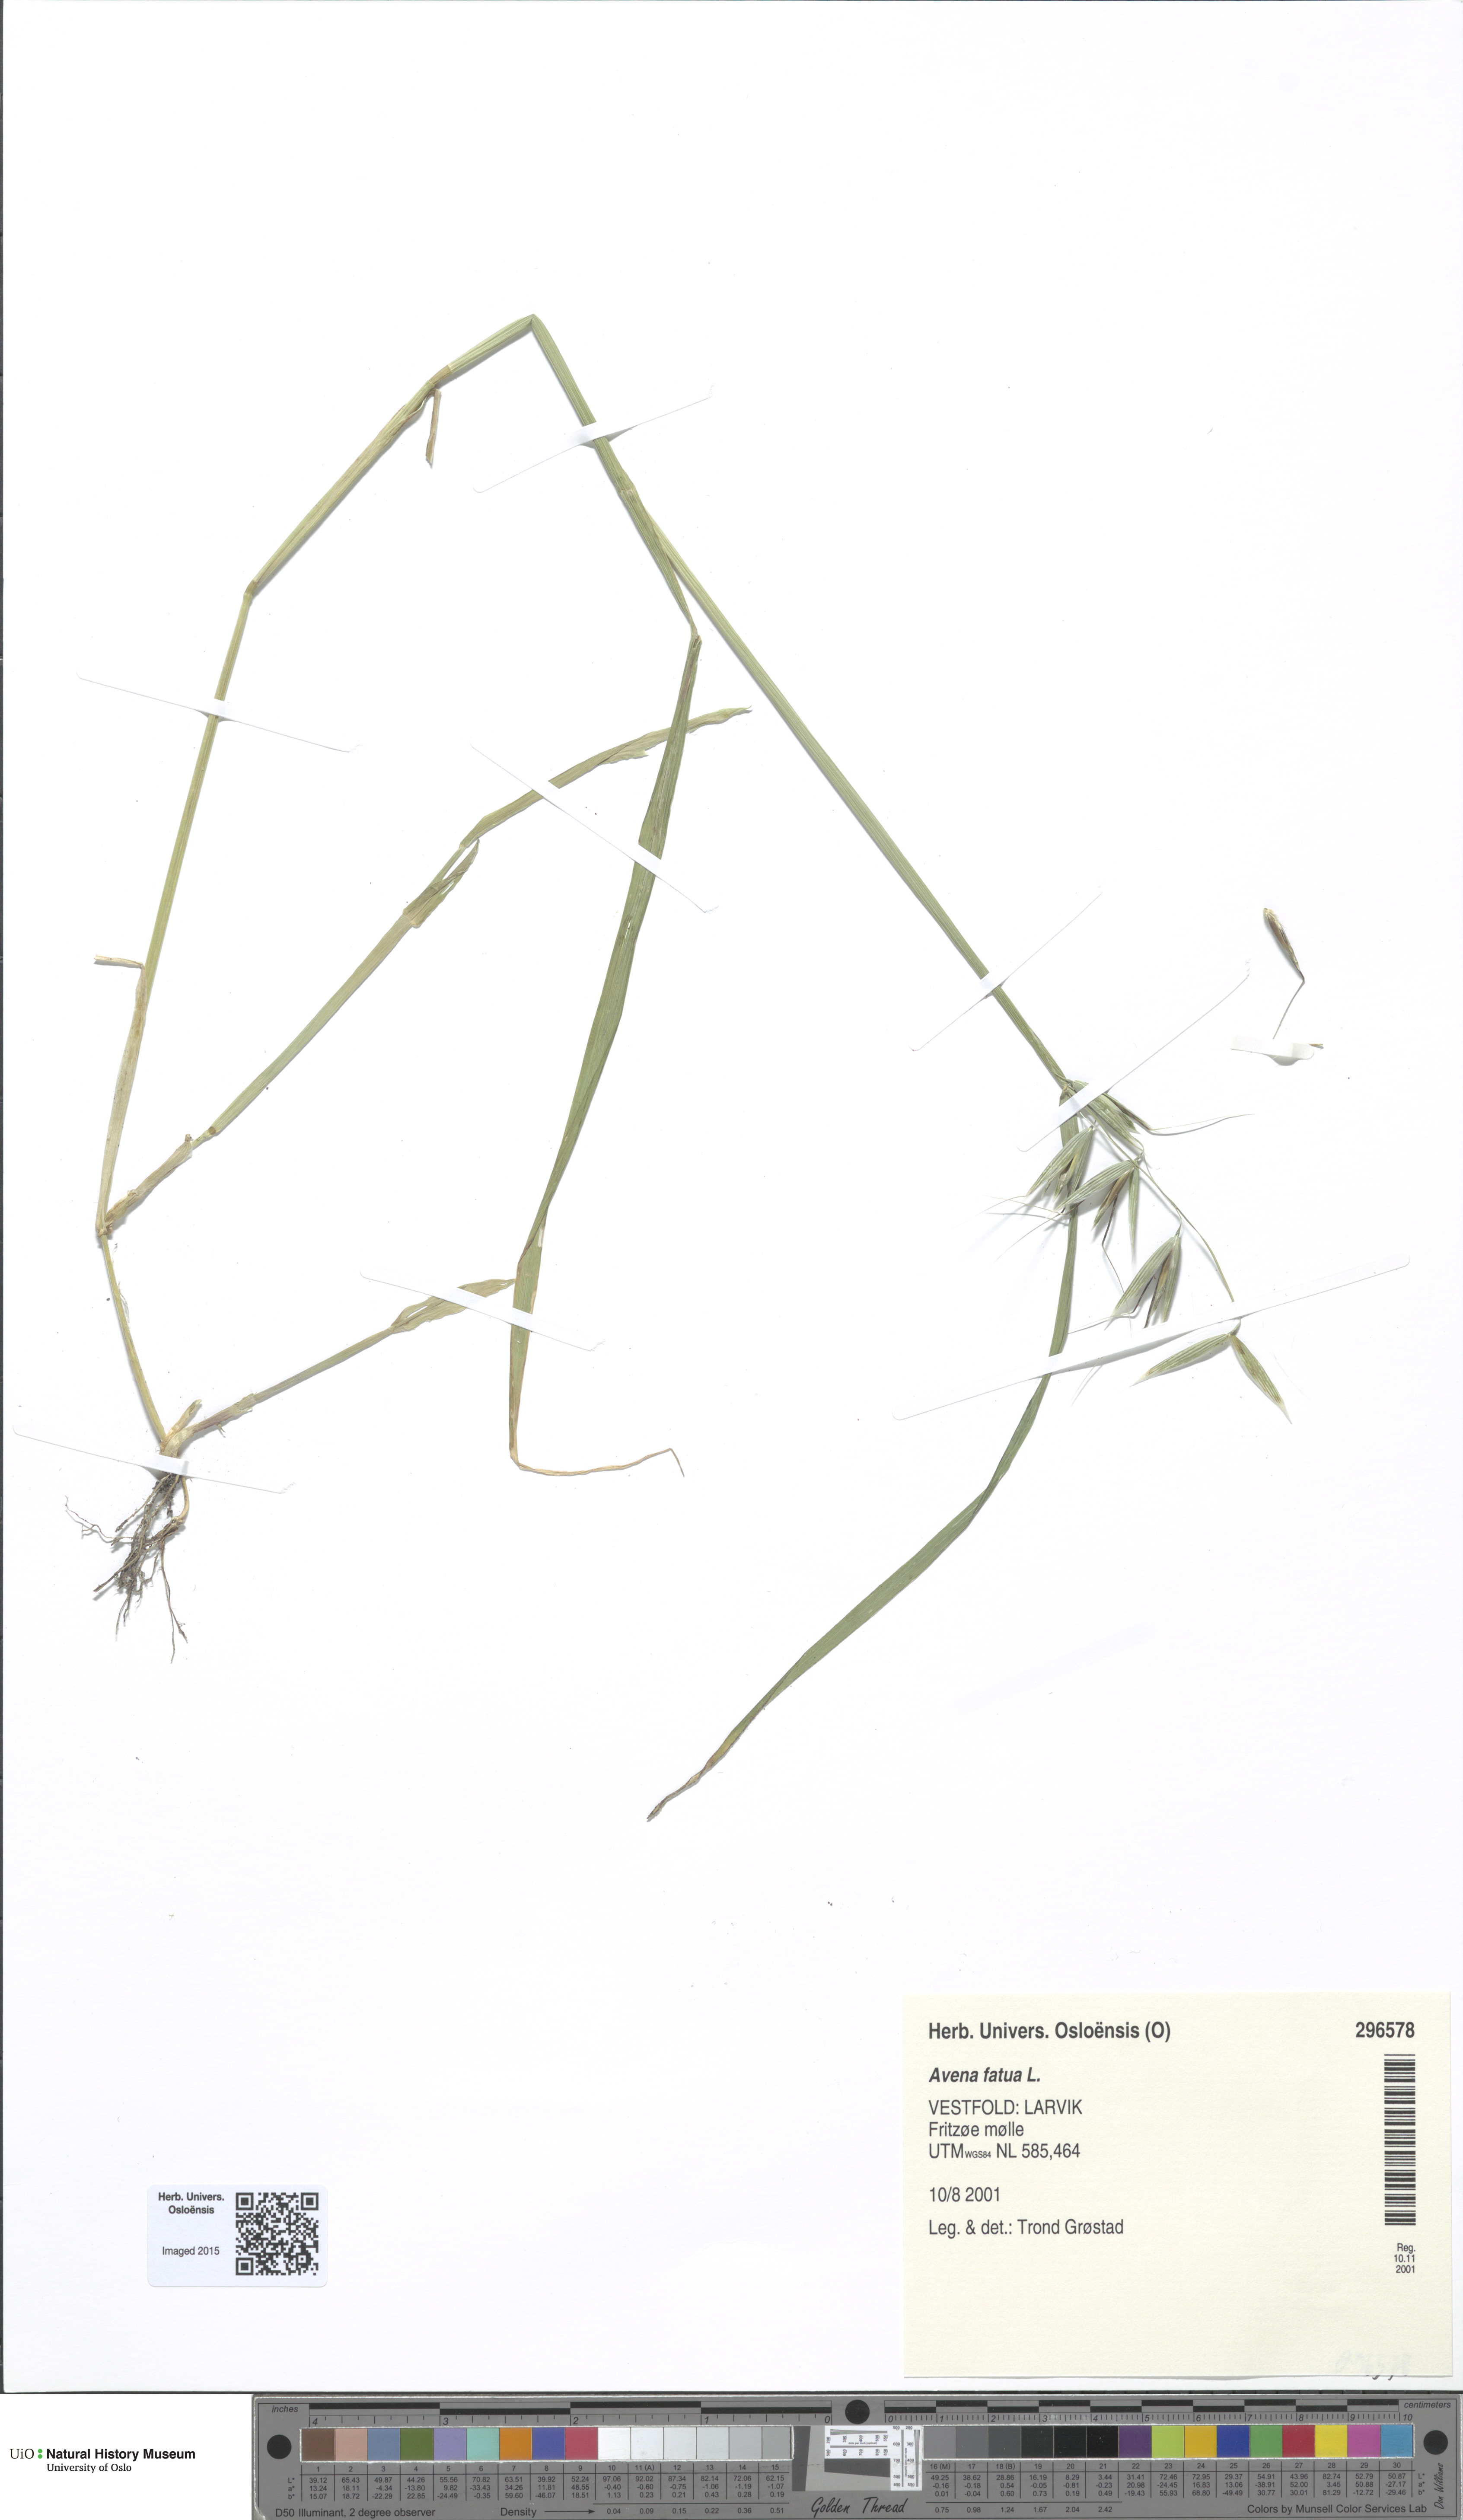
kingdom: Plantae
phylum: Tracheophyta
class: Liliopsida
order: Poales
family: Poaceae
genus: Avena
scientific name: Avena fatua
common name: Wild oat
